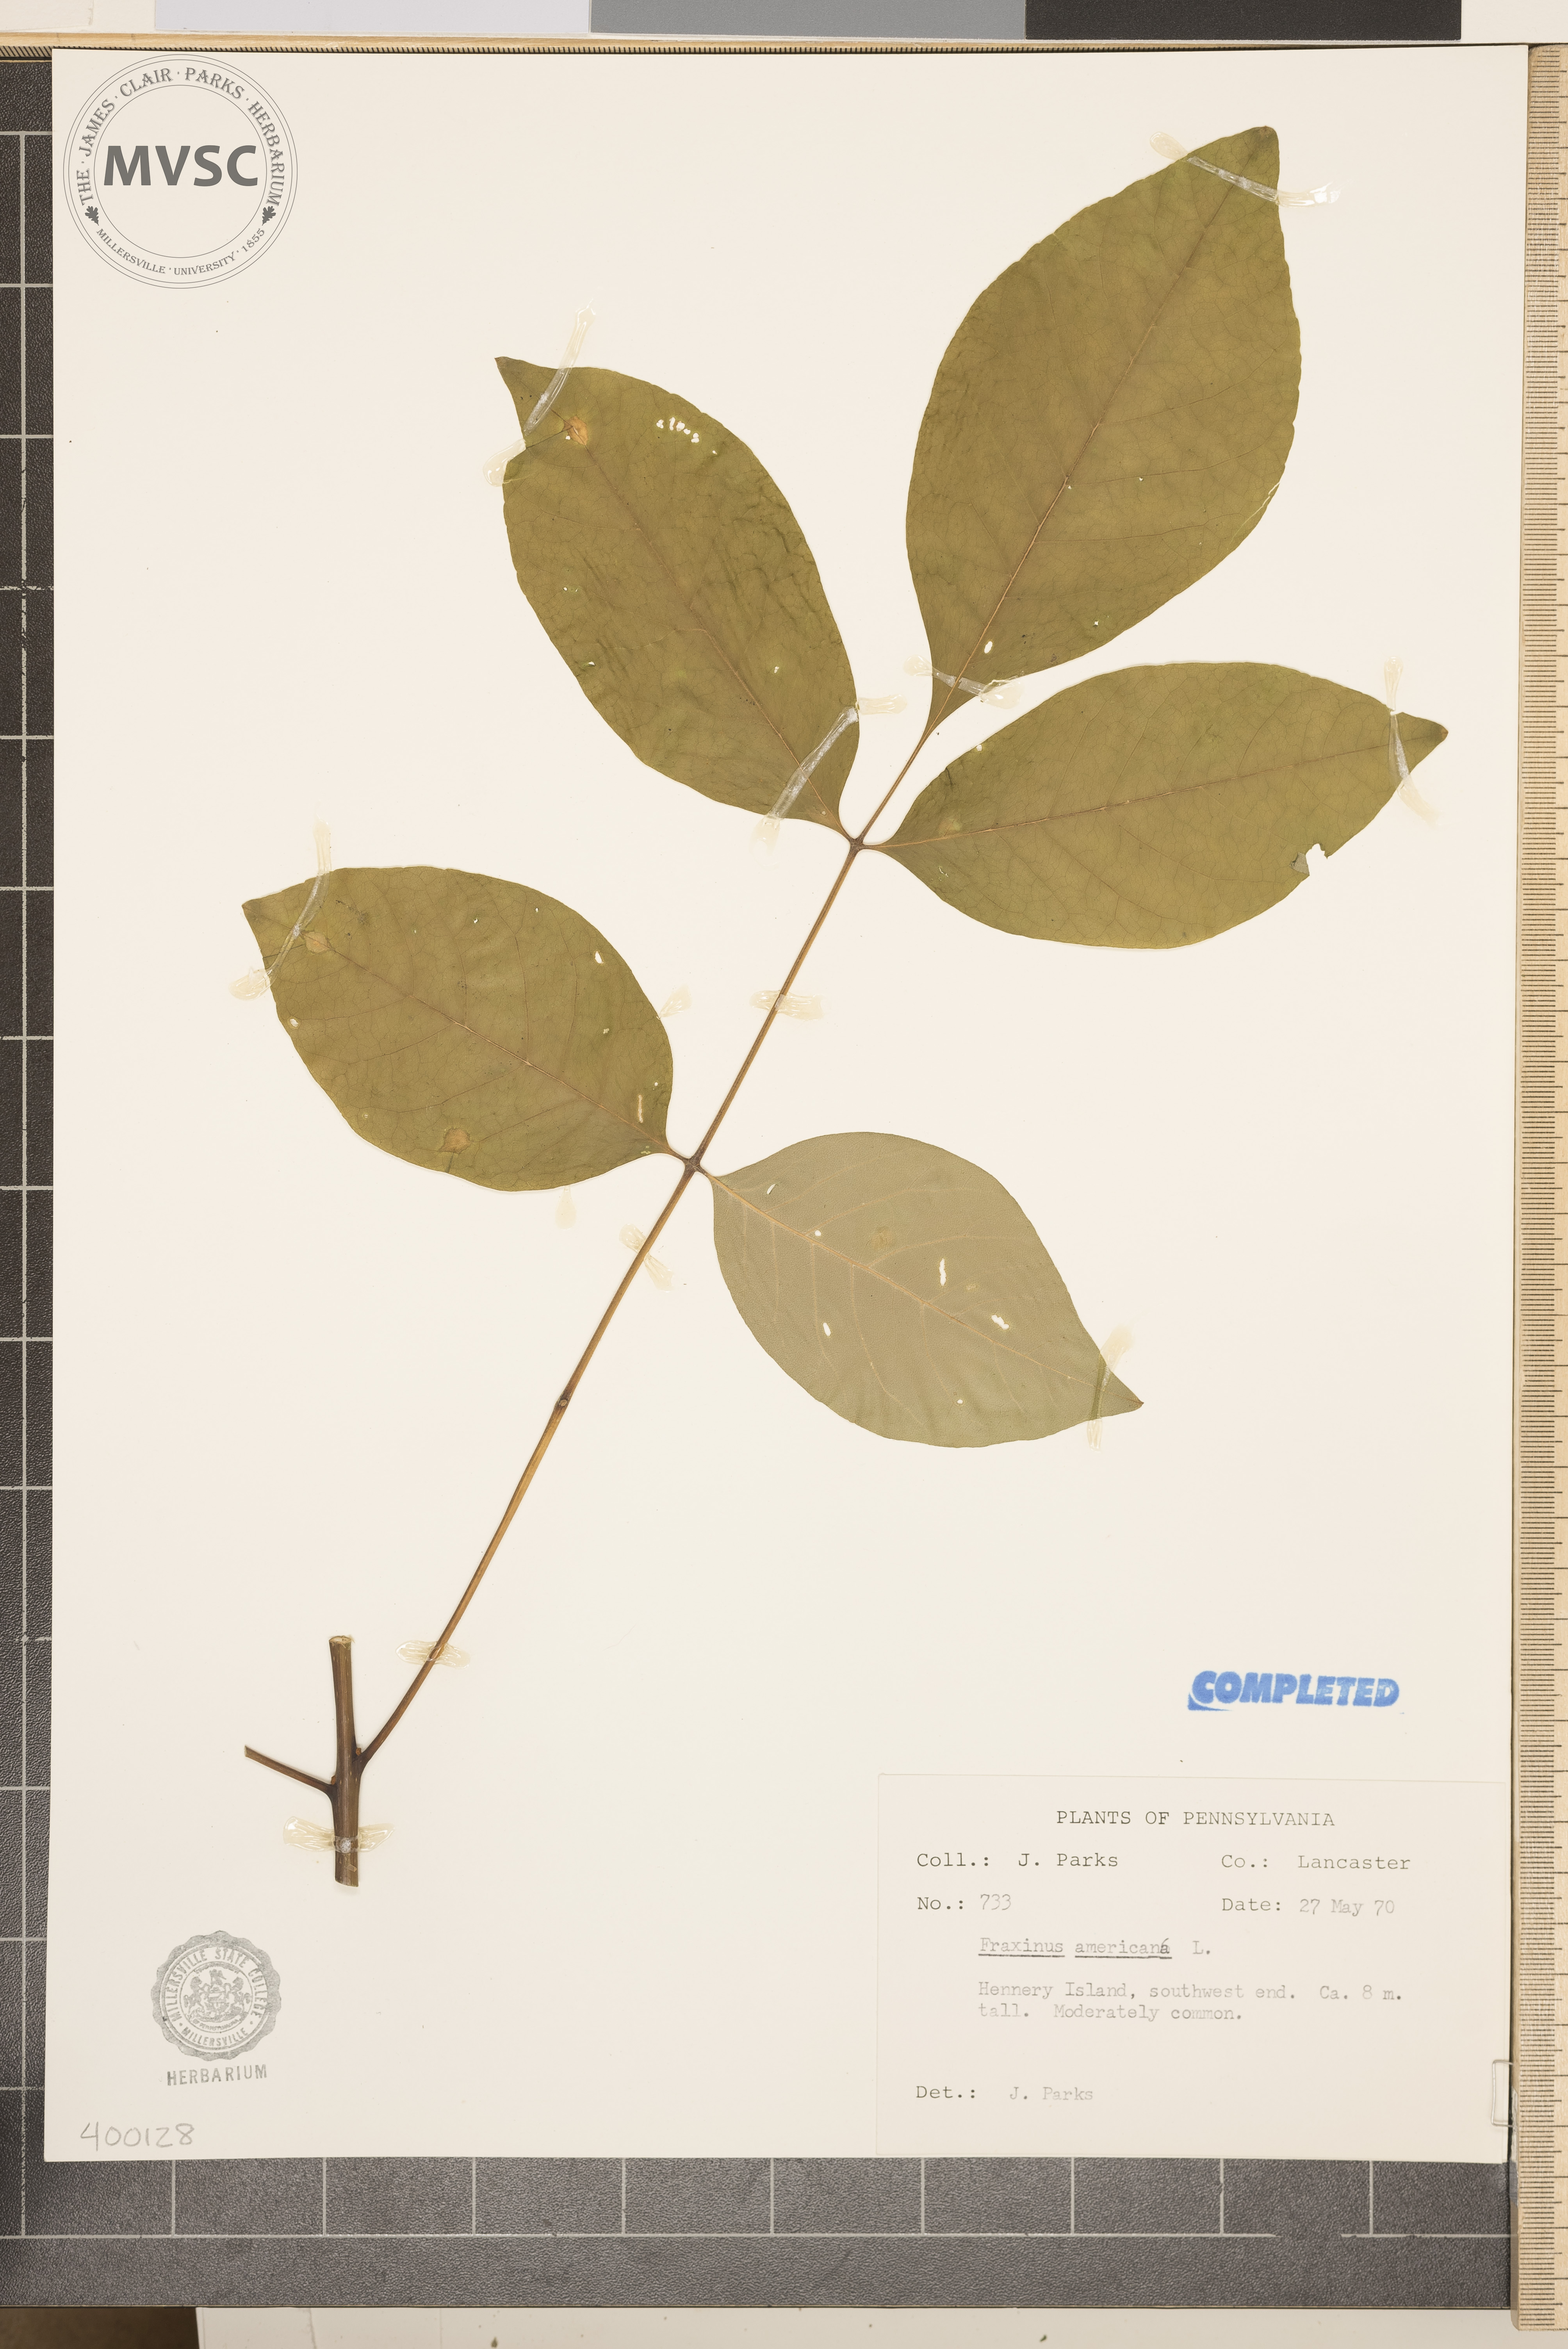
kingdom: Plantae
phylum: Tracheophyta
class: Magnoliopsida
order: Lamiales
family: Oleaceae
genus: Fraxinus
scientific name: Fraxinus americana
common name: ash
